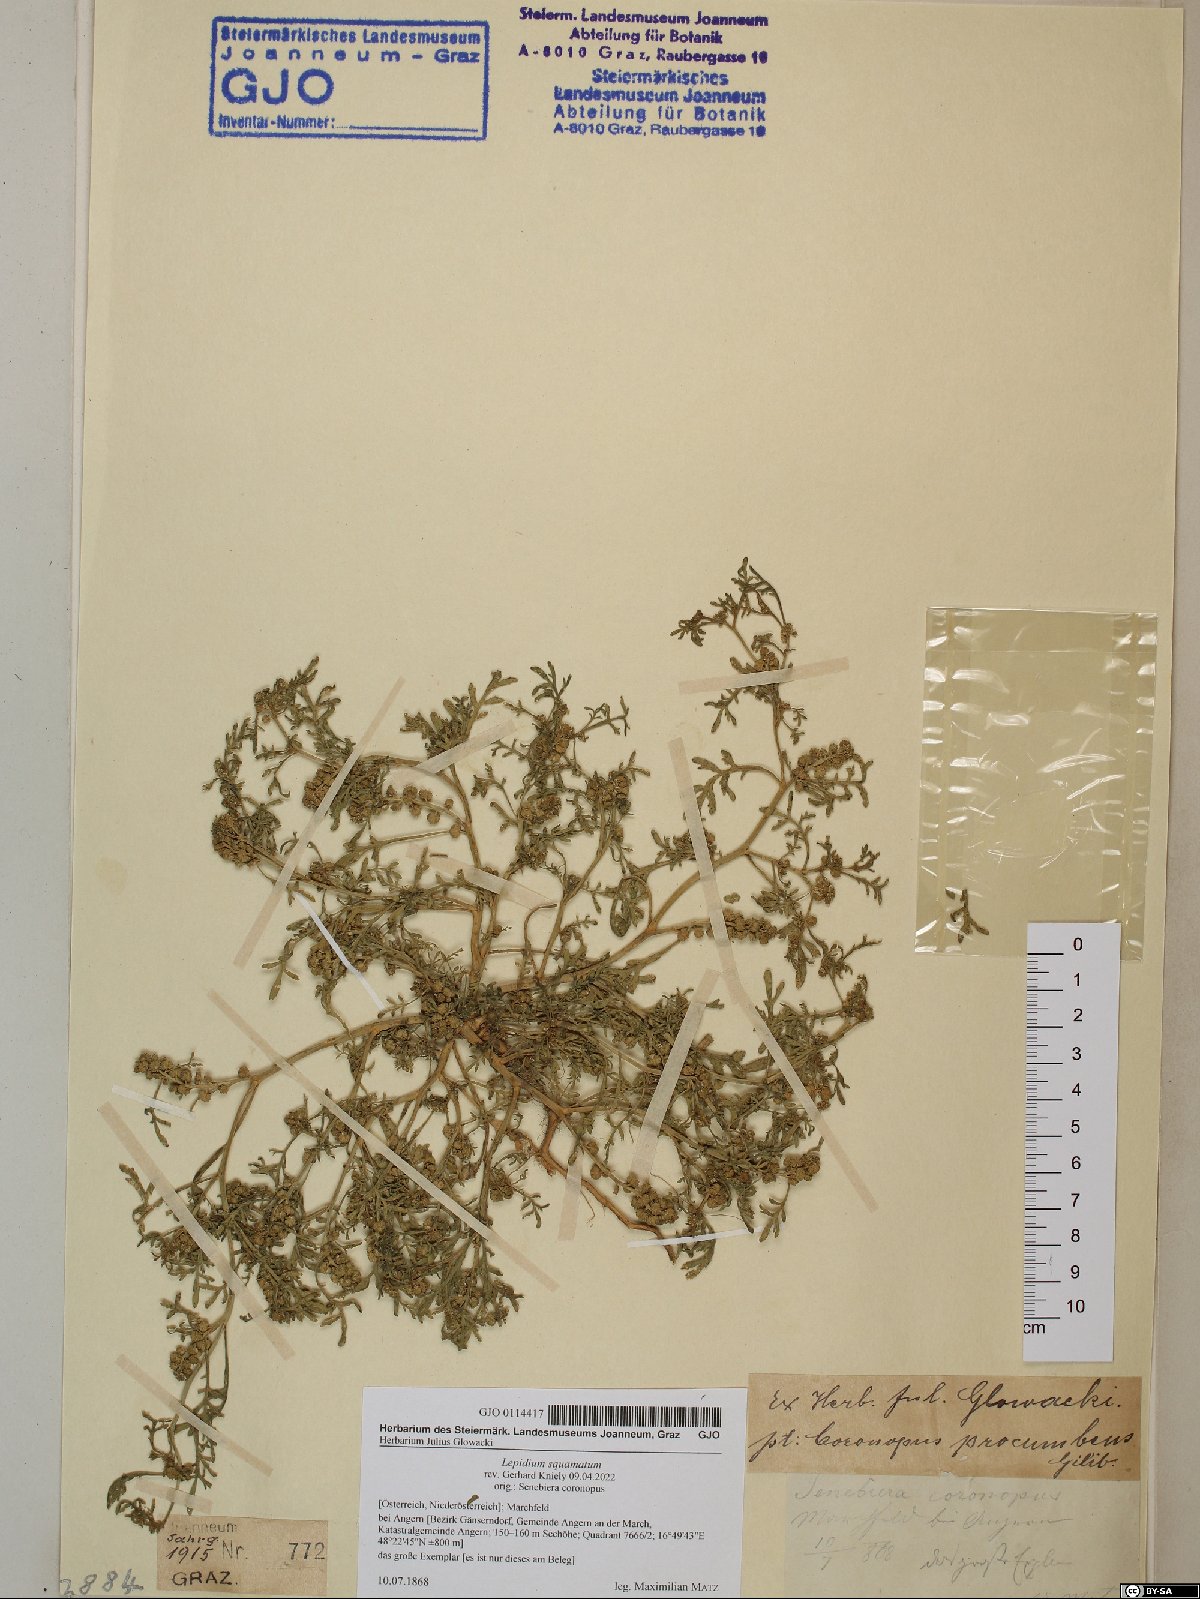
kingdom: Plantae
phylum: Tracheophyta
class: Magnoliopsida
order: Brassicales
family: Brassicaceae
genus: Lepidium
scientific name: Lepidium coronopus
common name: Greater swinecress
